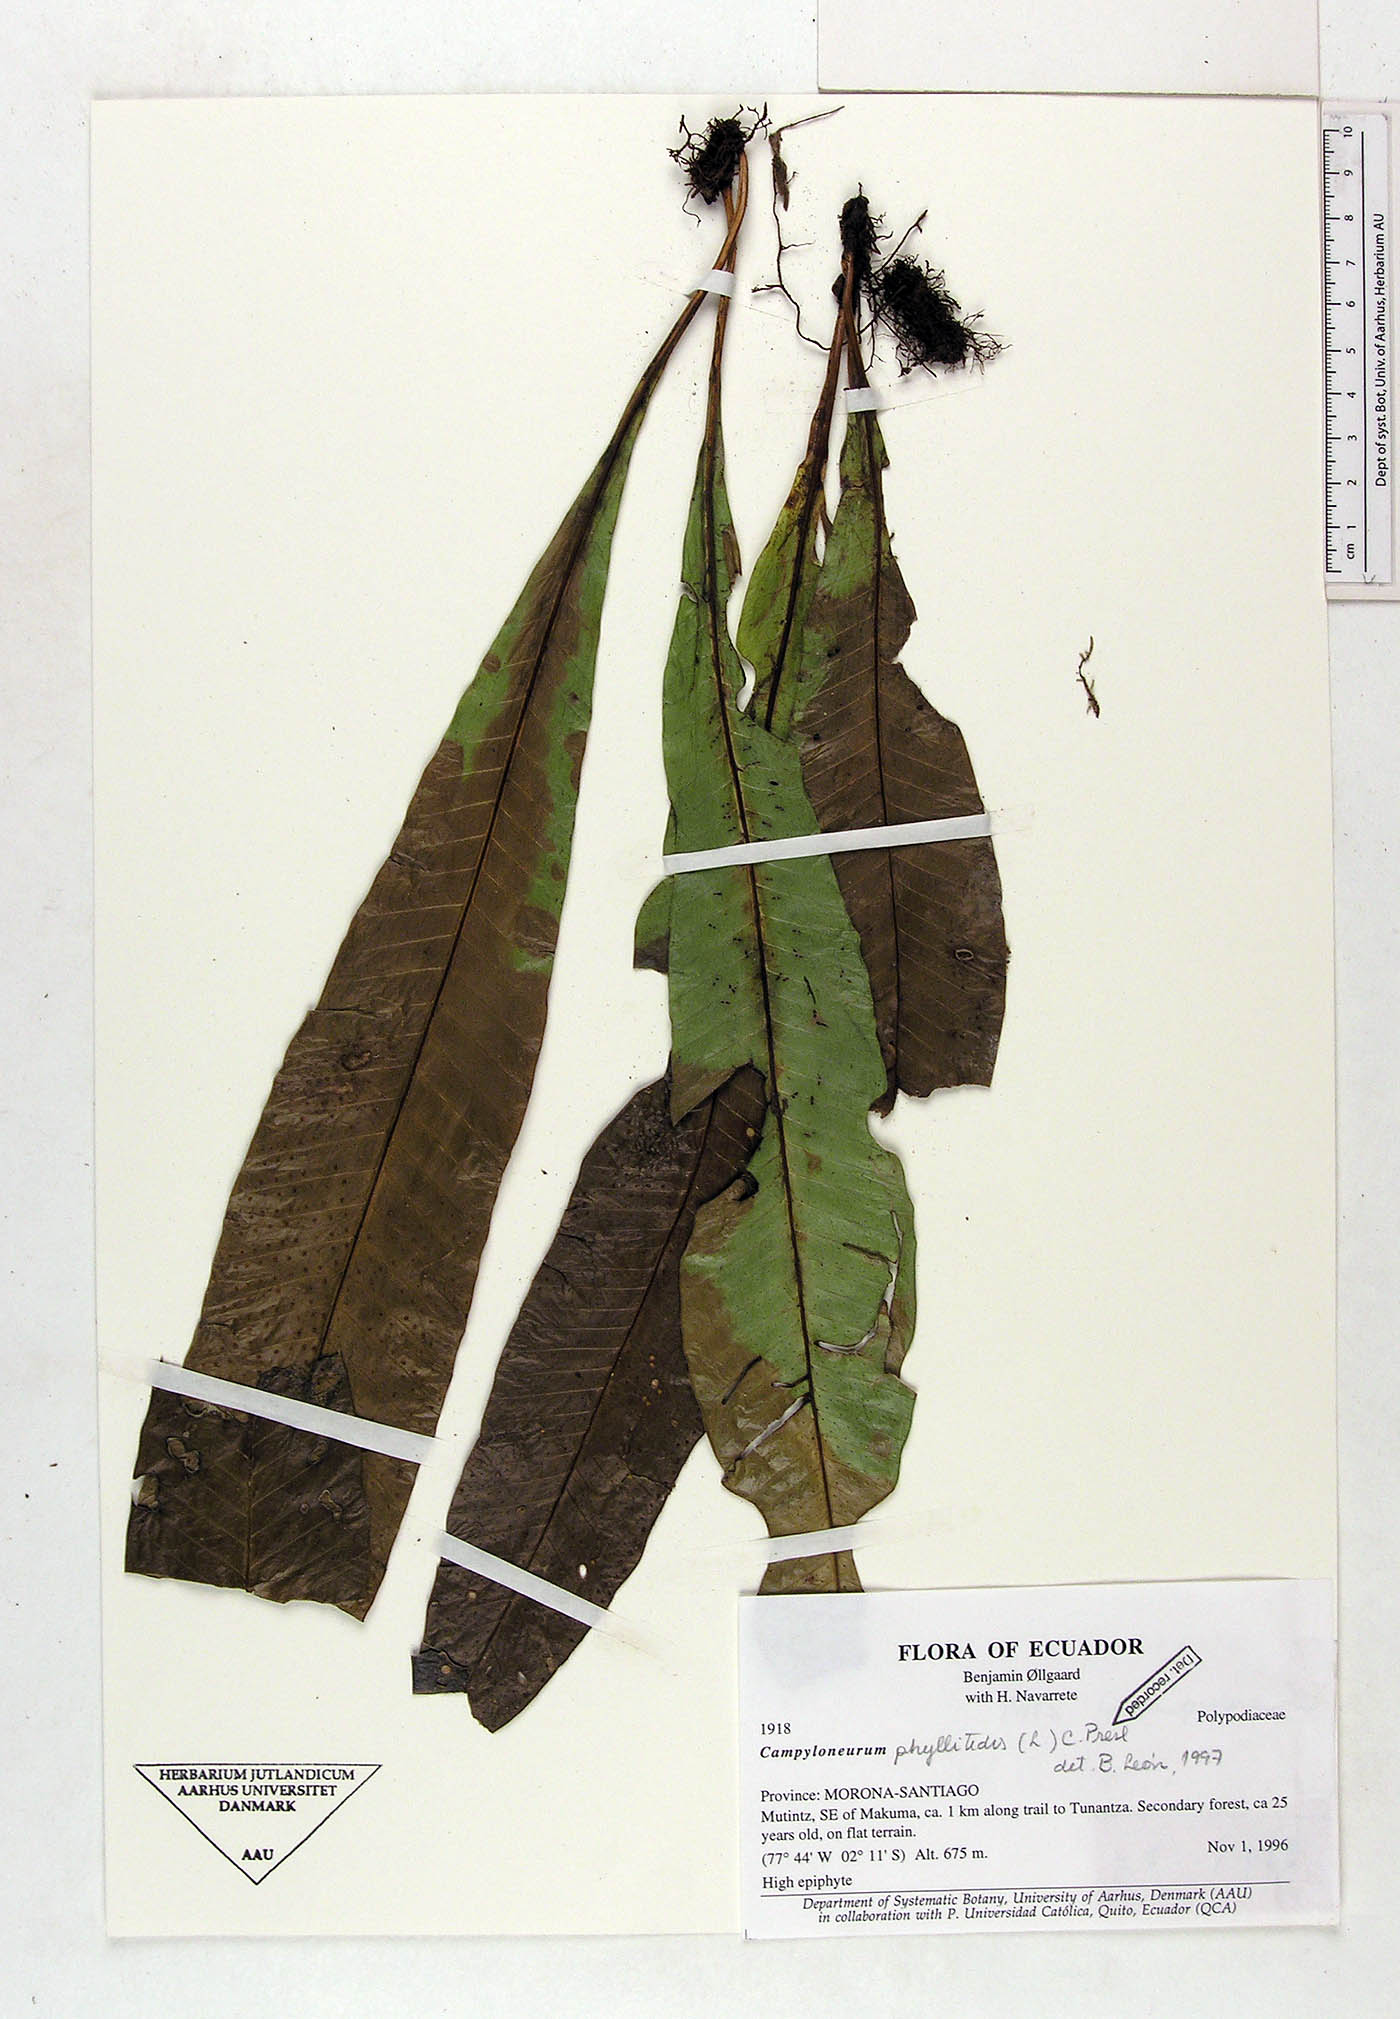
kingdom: Plantae
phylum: Tracheophyta
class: Polypodiopsida
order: Polypodiales
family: Polypodiaceae
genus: Campyloneurum
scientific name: Campyloneurum phyllitidis
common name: Cow-tongue fern
